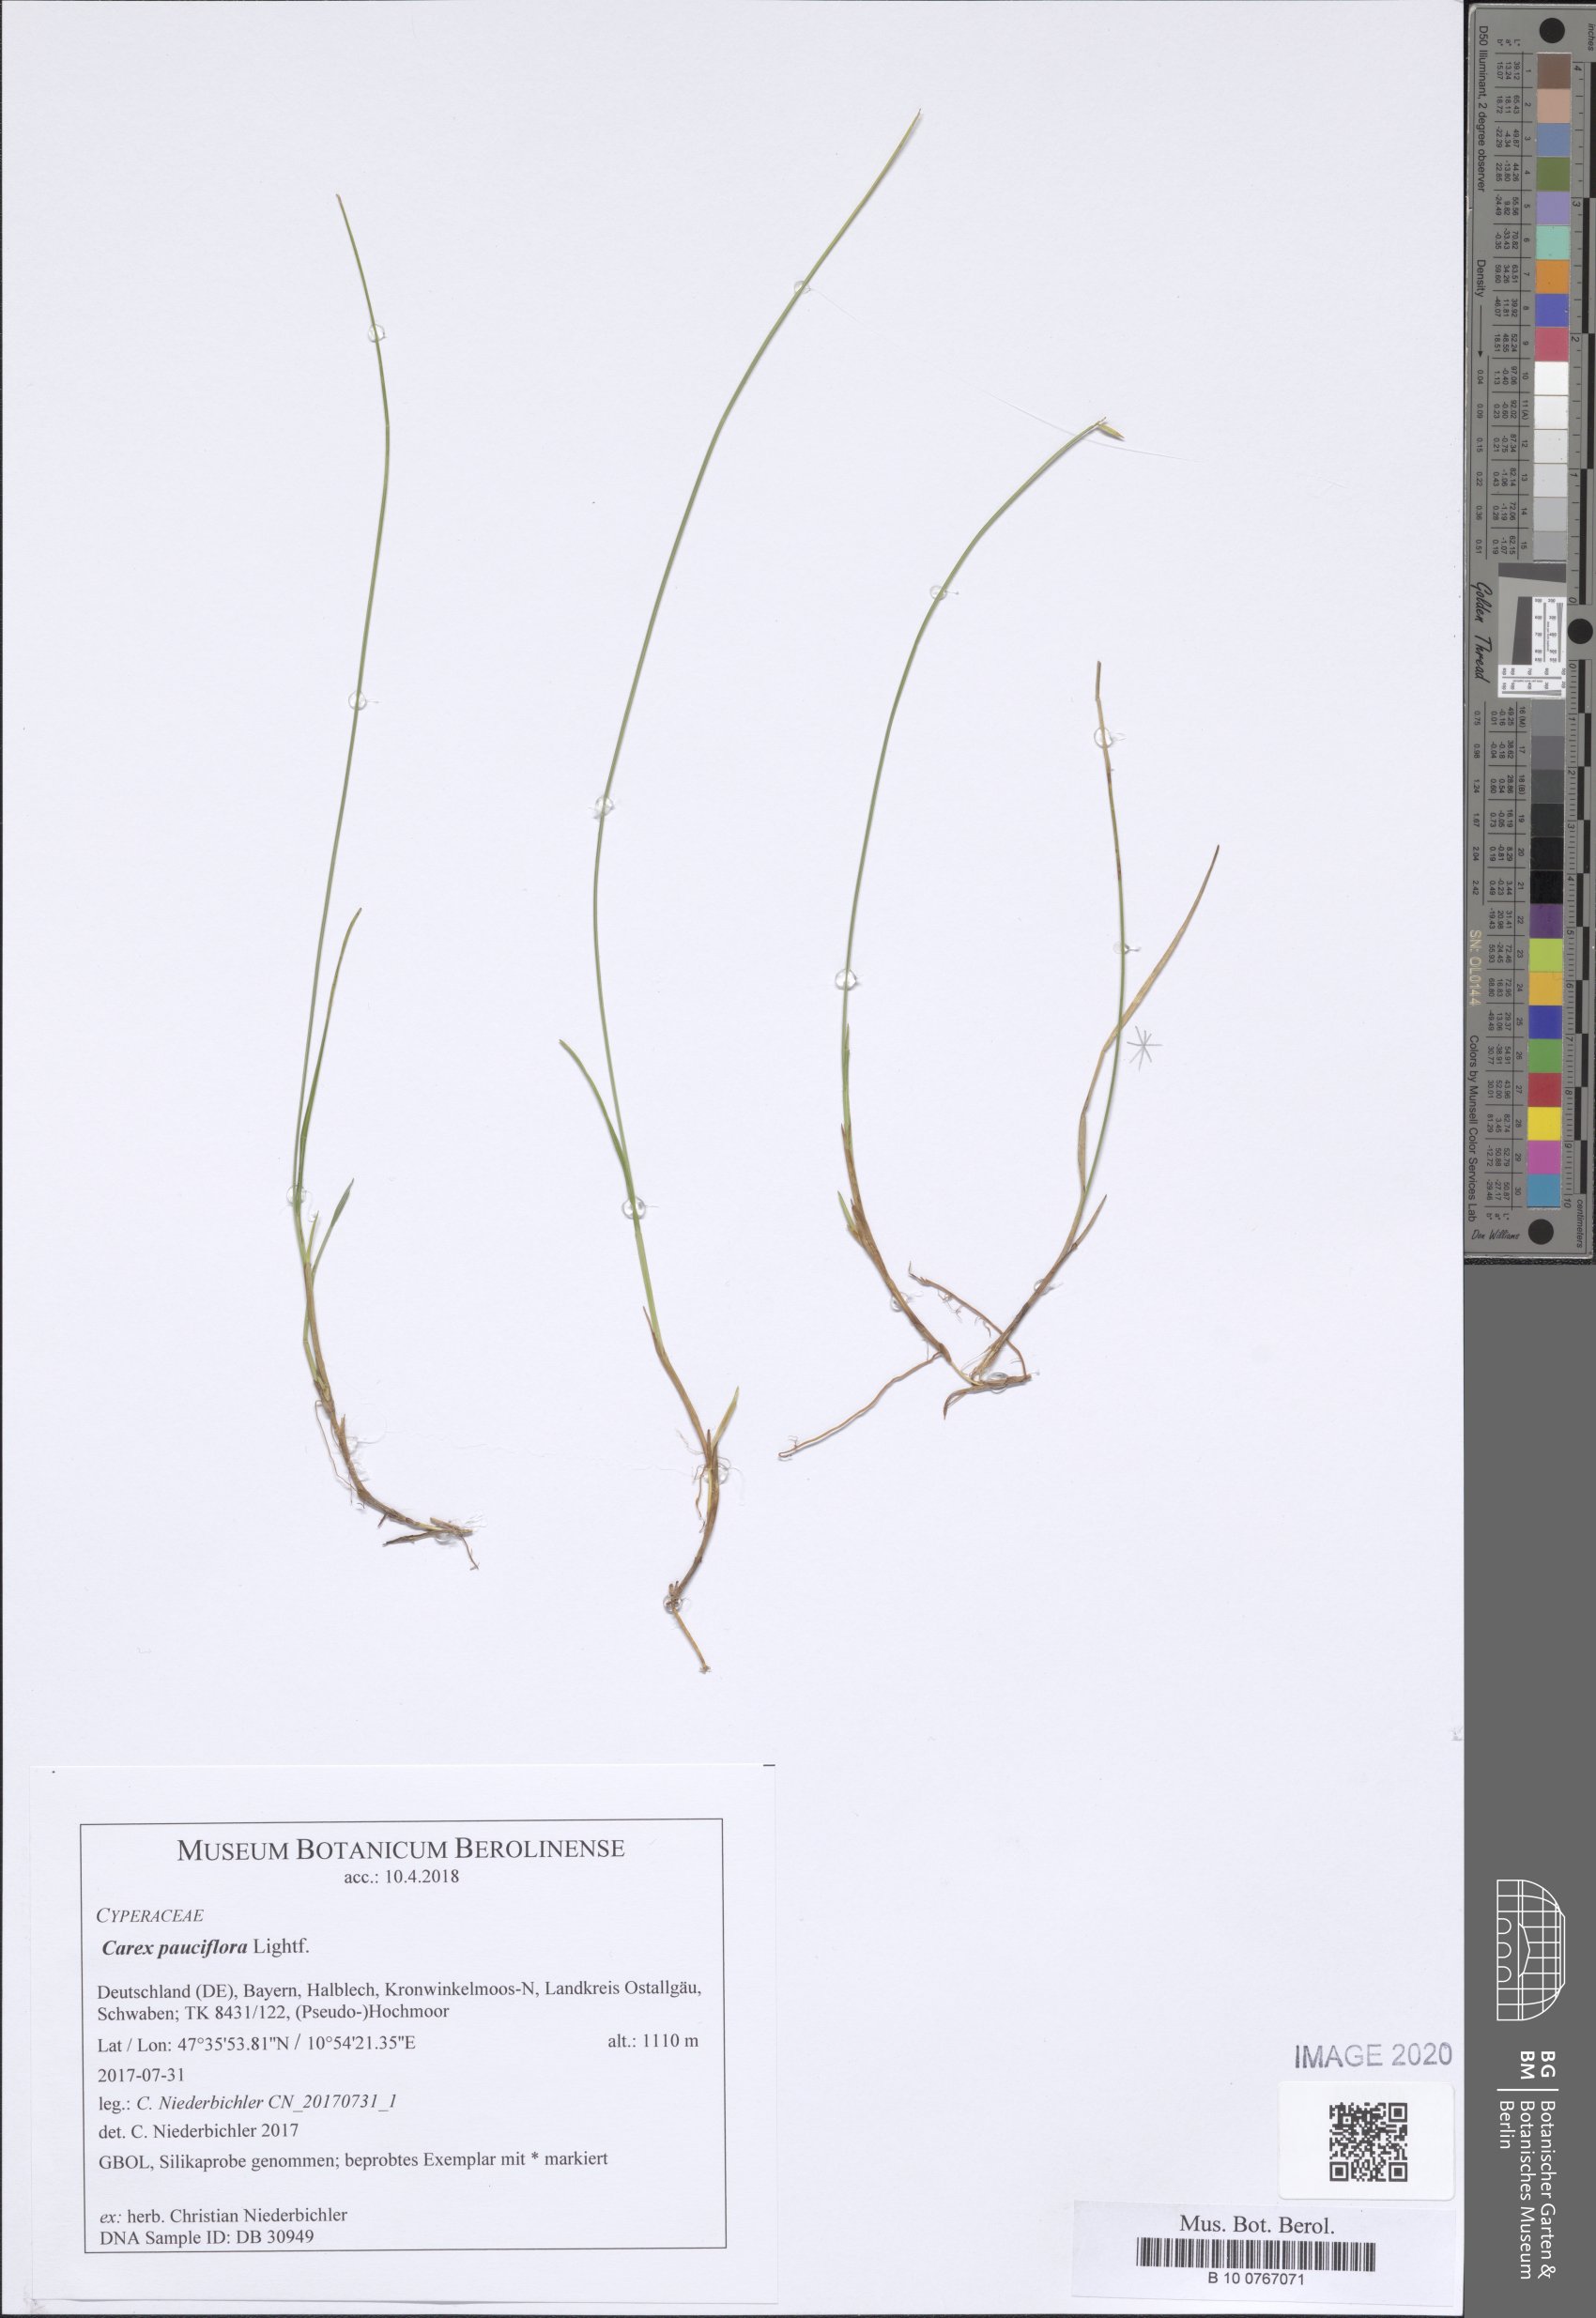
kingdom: Plantae
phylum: Tracheophyta
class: Liliopsida
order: Poales
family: Cyperaceae
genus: Carex
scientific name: Carex pauciflora
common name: Few-flowered sedge
